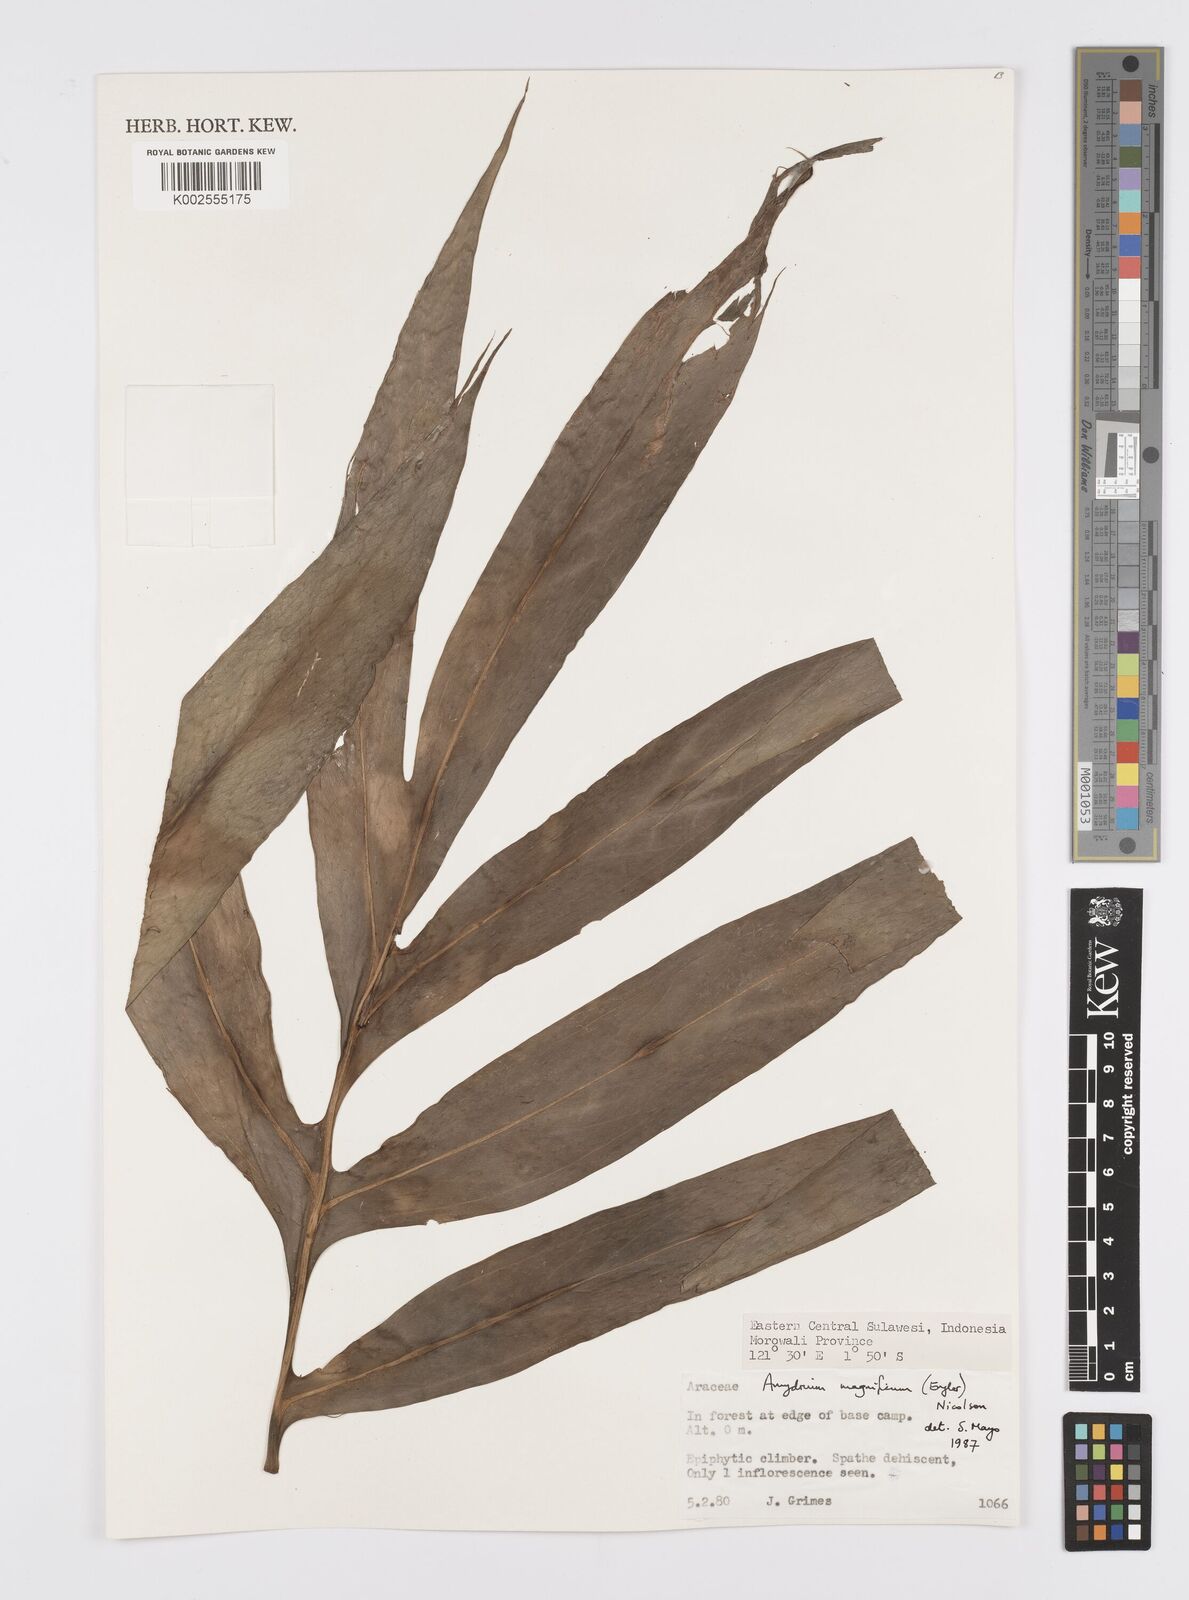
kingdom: Plantae
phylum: Tracheophyta
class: Liliopsida
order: Alismatales
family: Araceae
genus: Amydrium
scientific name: Amydrium zippelianum
